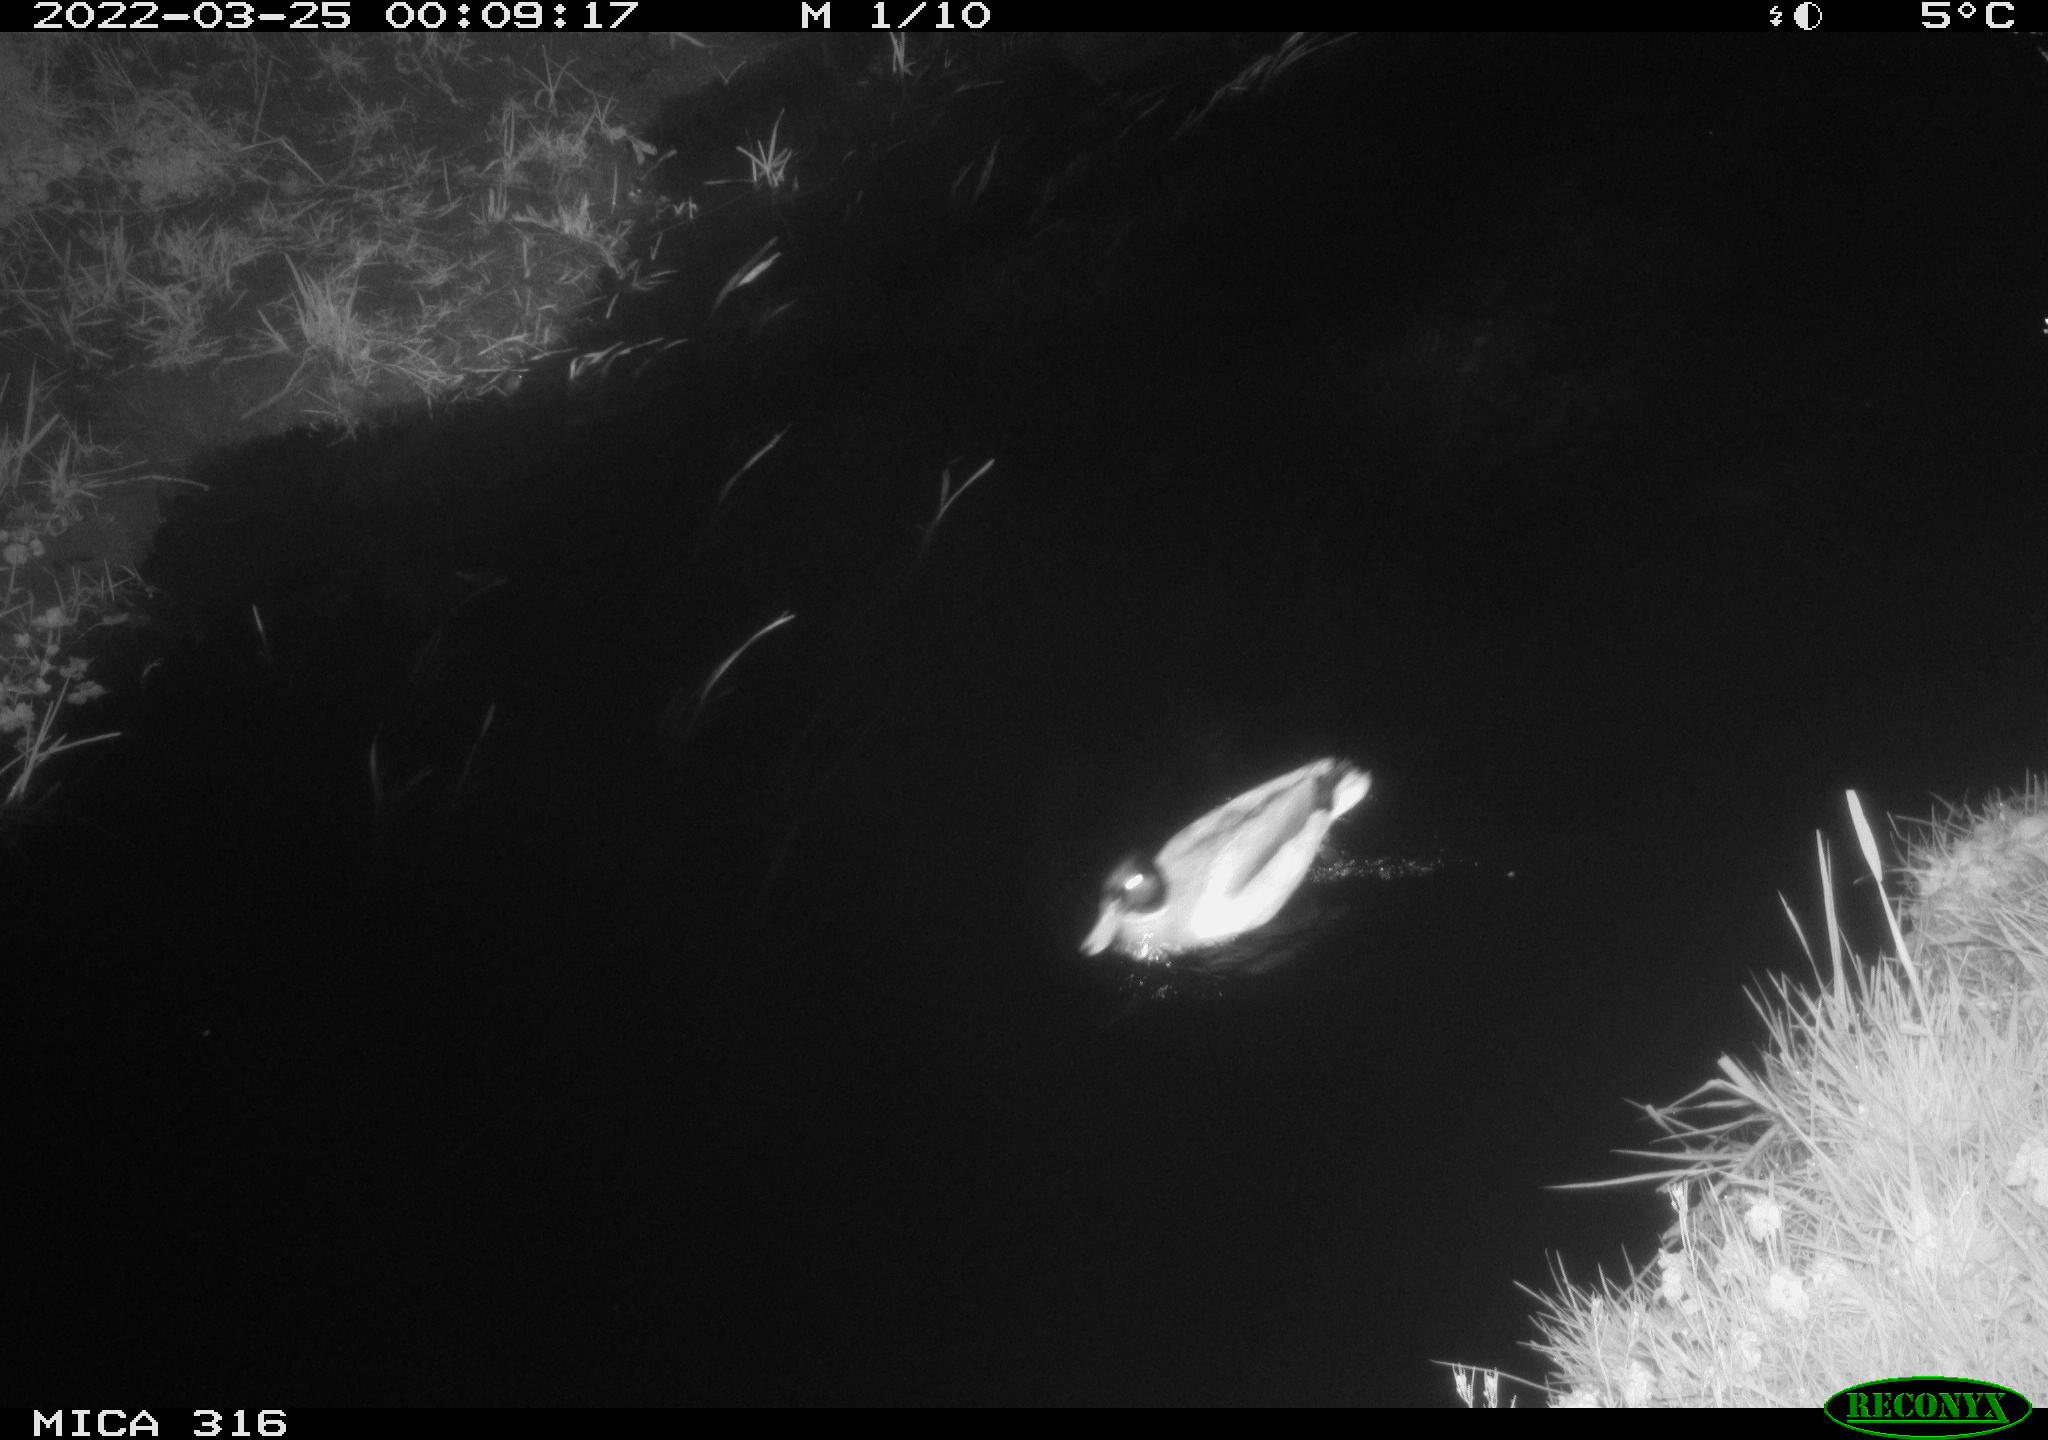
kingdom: Animalia
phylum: Chordata
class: Aves
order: Anseriformes
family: Anatidae
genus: Anas
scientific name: Anas platyrhynchos
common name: Mallard
